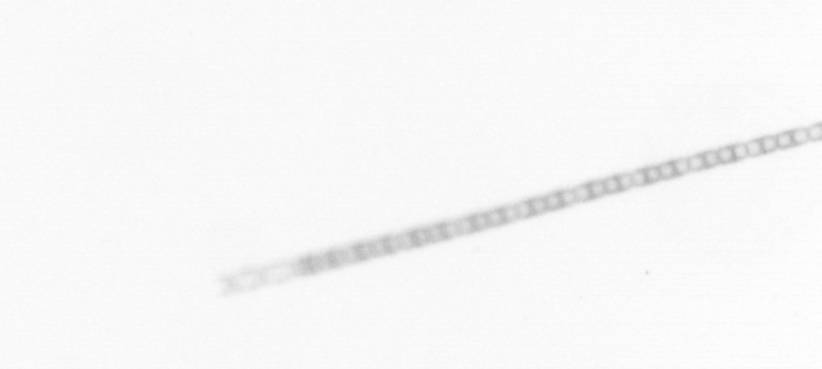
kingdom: Chromista
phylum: Ochrophyta
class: Bacillariophyceae
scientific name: Bacillariophyceae
